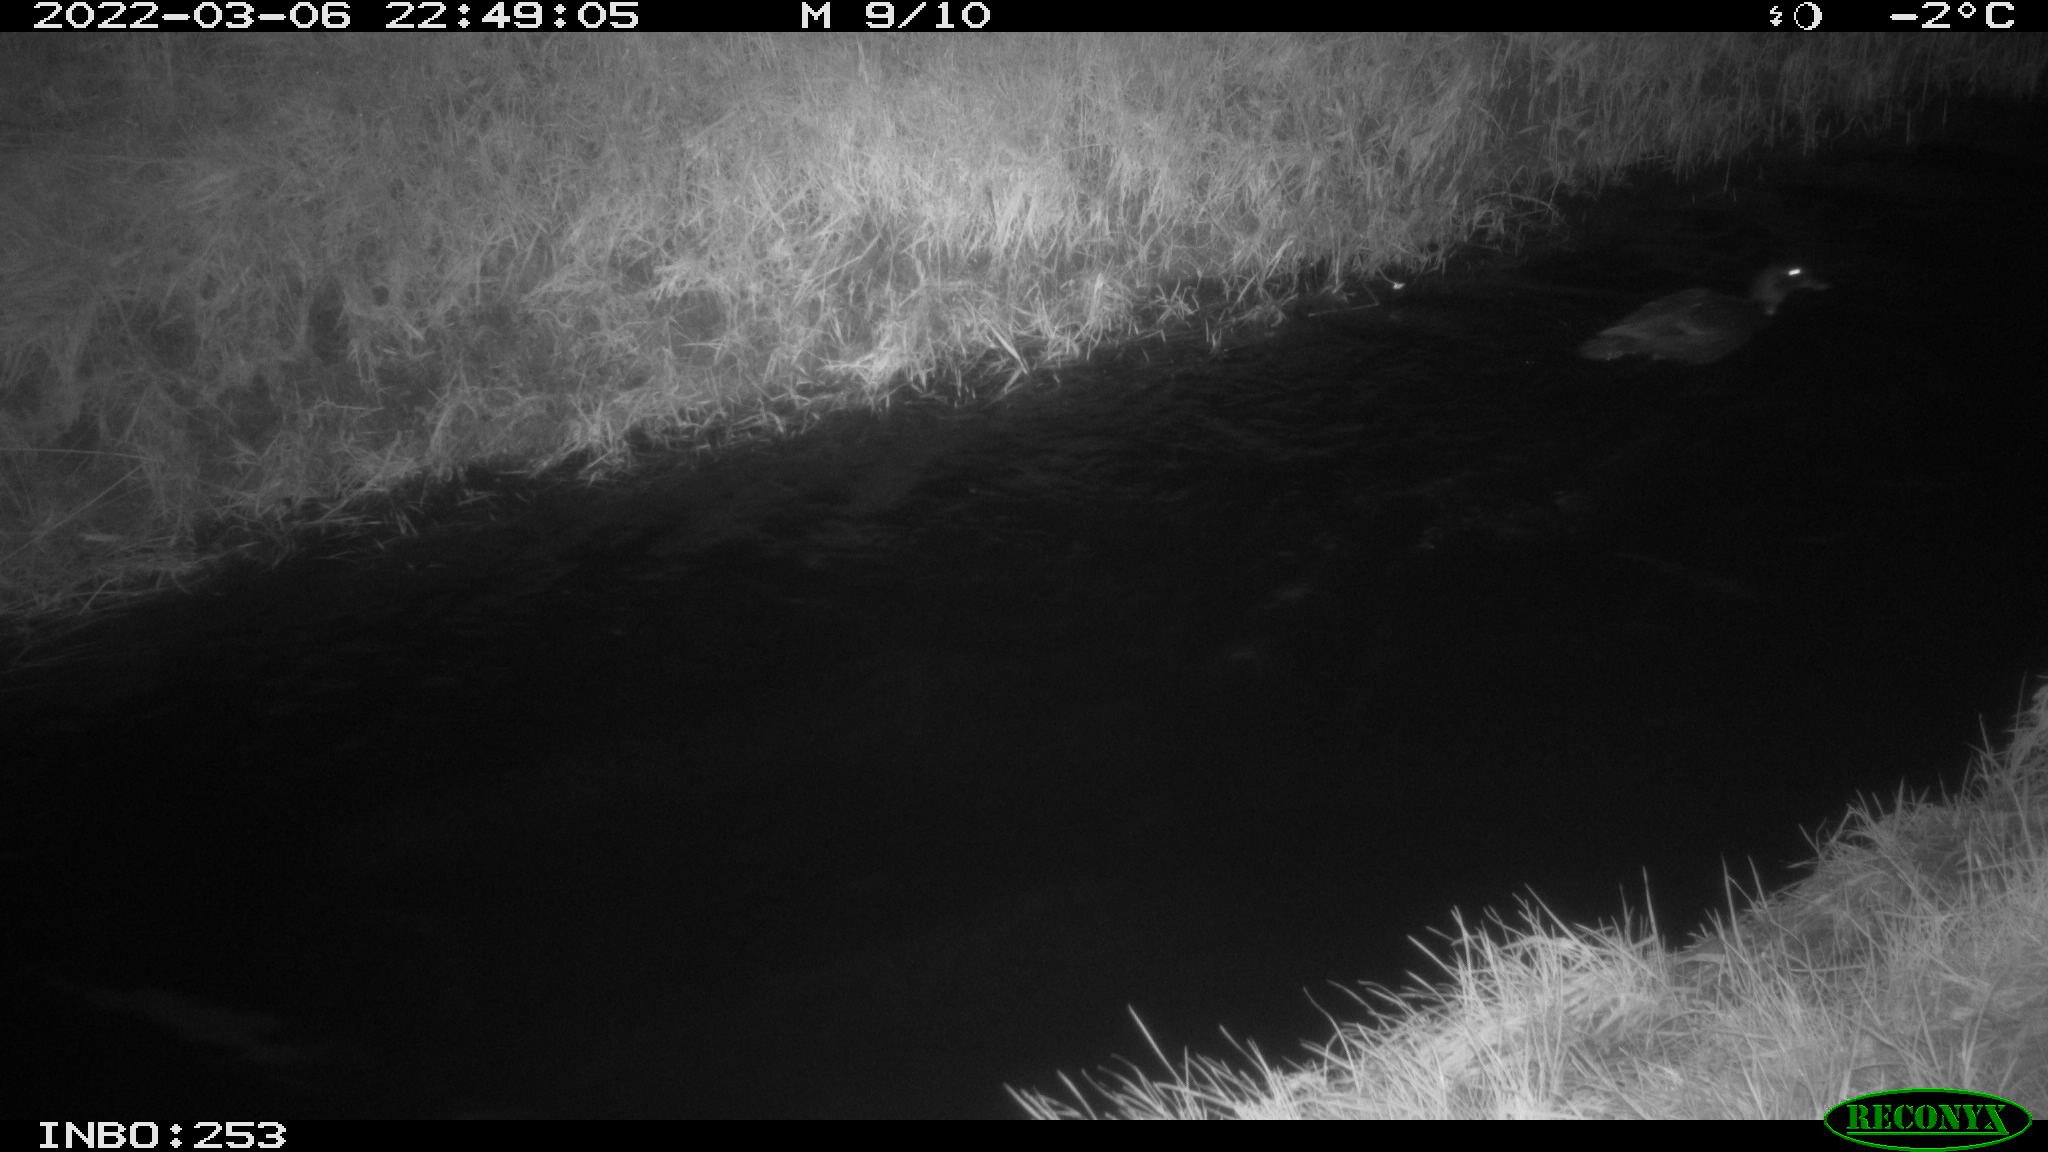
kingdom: Animalia
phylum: Chordata
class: Aves
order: Anseriformes
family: Anatidae
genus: Anas
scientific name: Anas platyrhynchos
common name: Mallard
